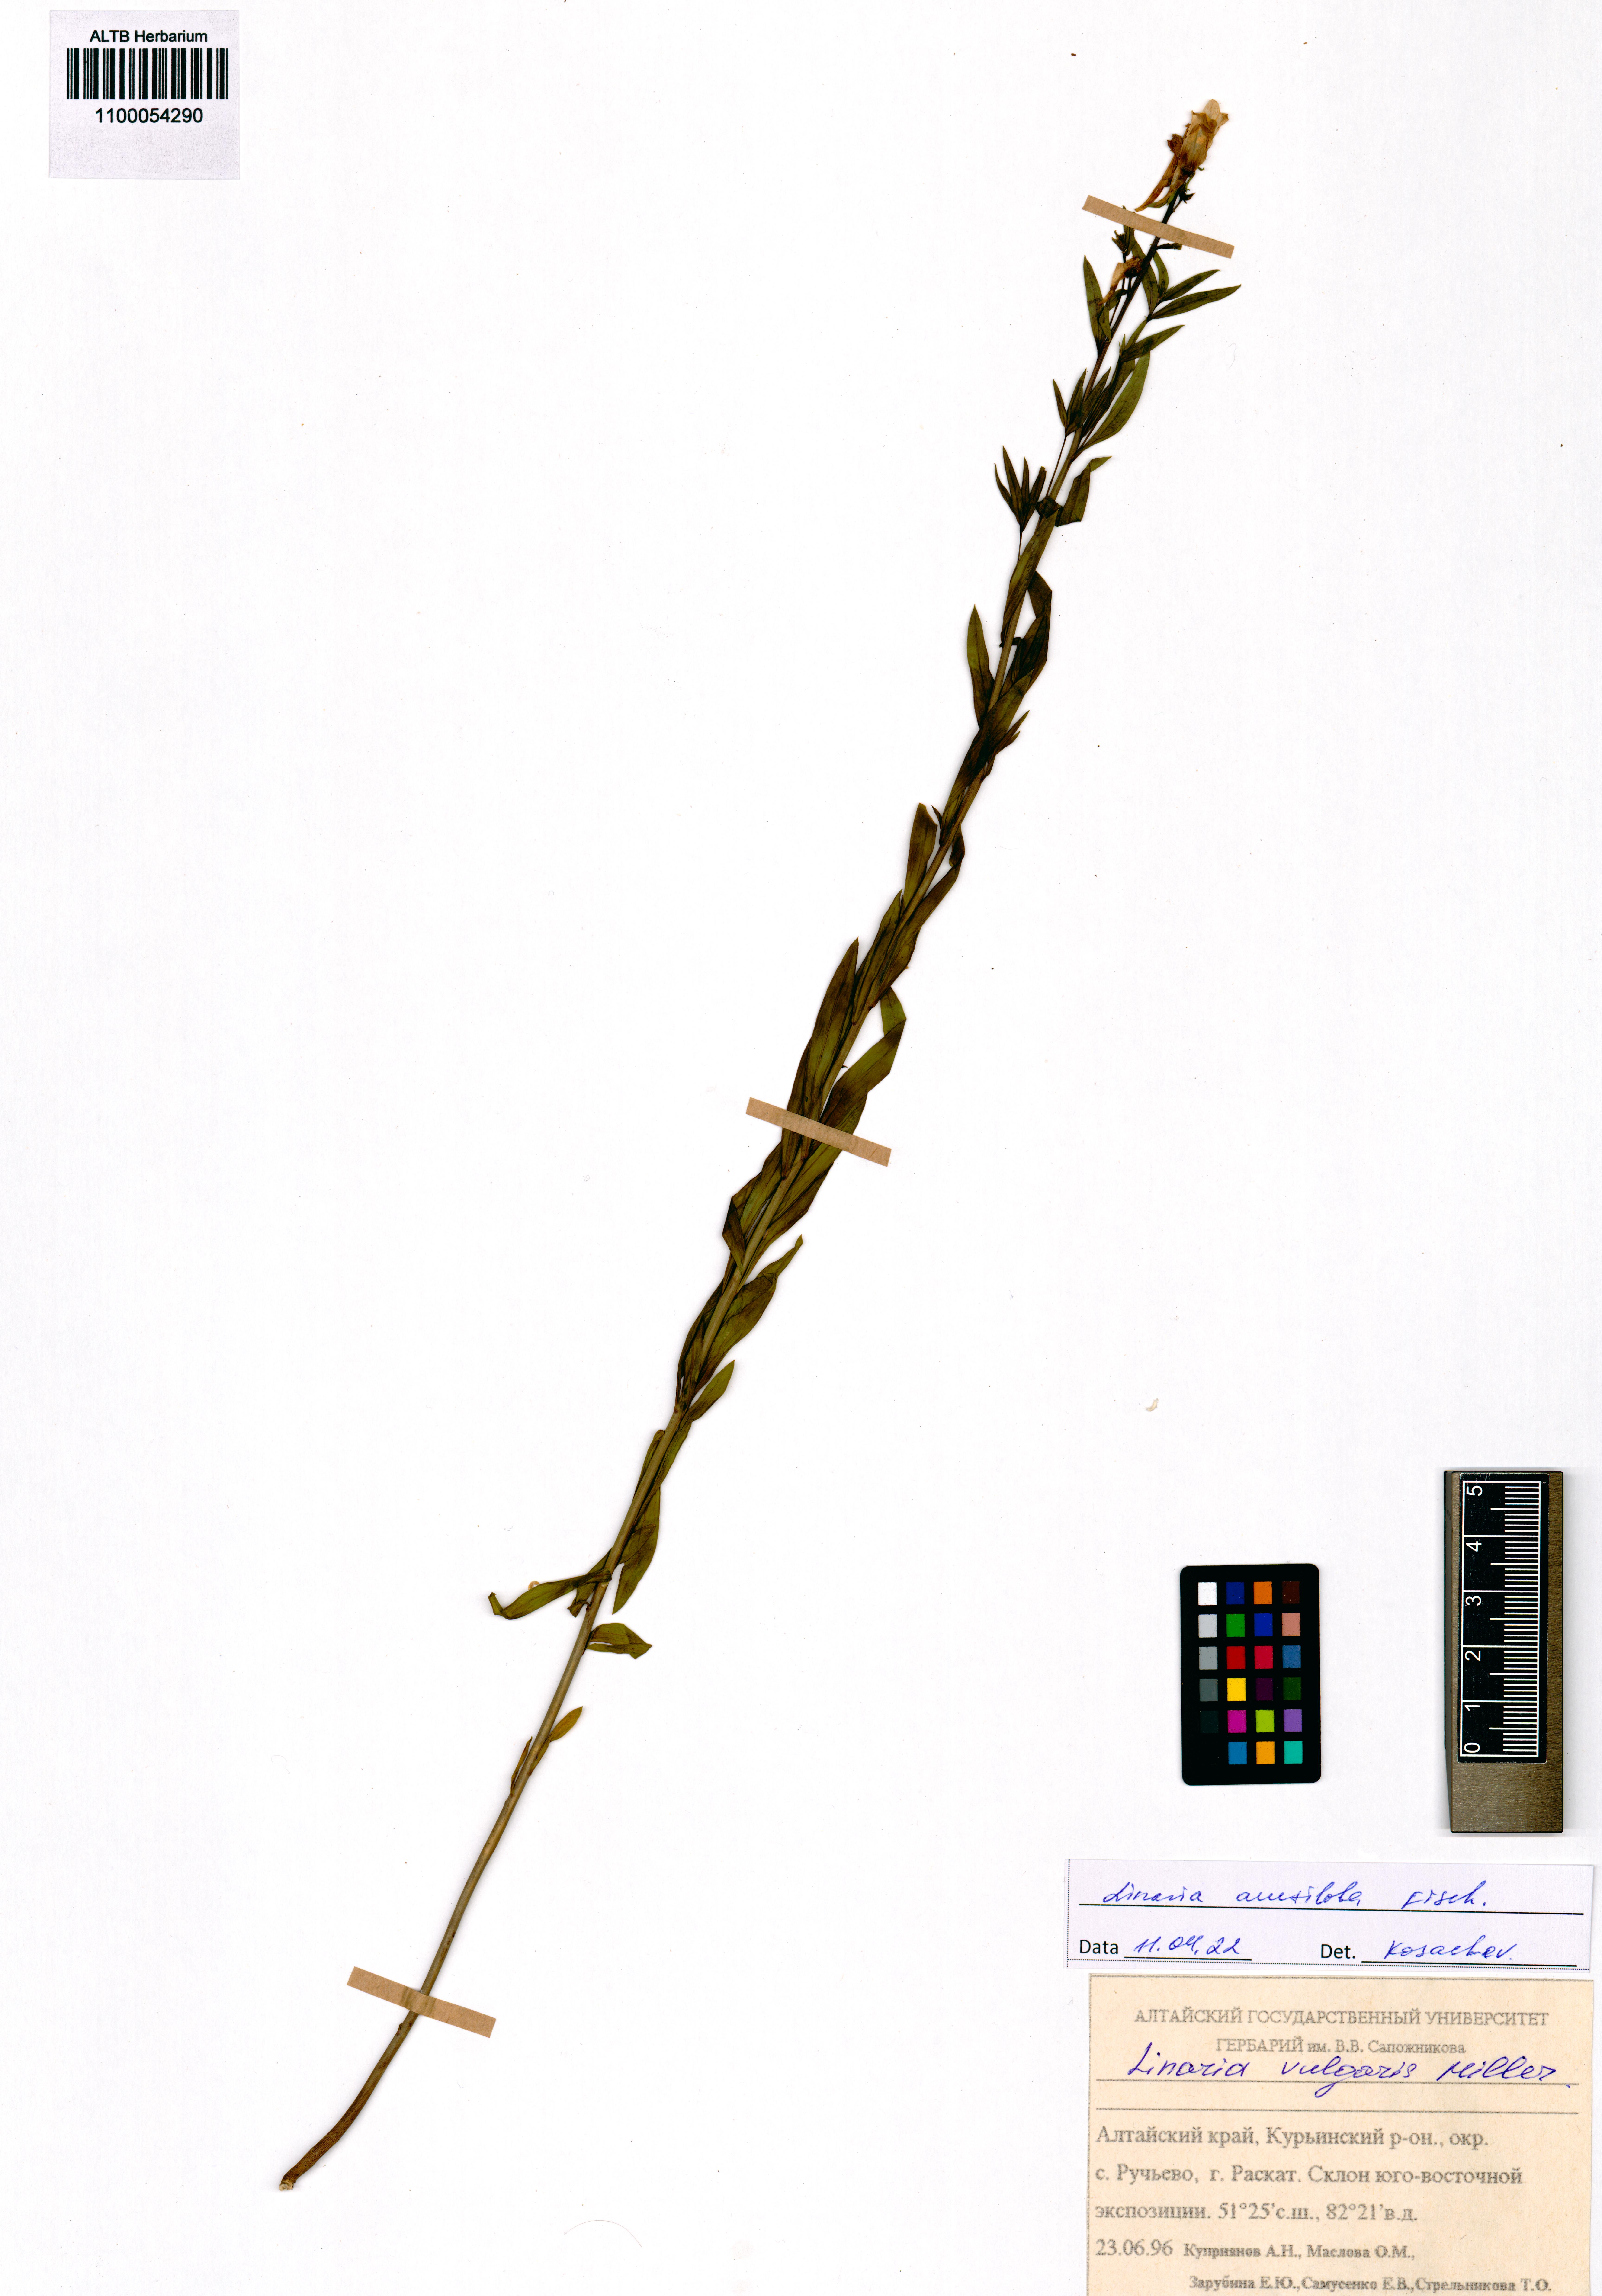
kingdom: Plantae
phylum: Tracheophyta
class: Magnoliopsida
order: Lamiales
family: Plantaginaceae
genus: Linaria
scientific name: Linaria acutiloba
